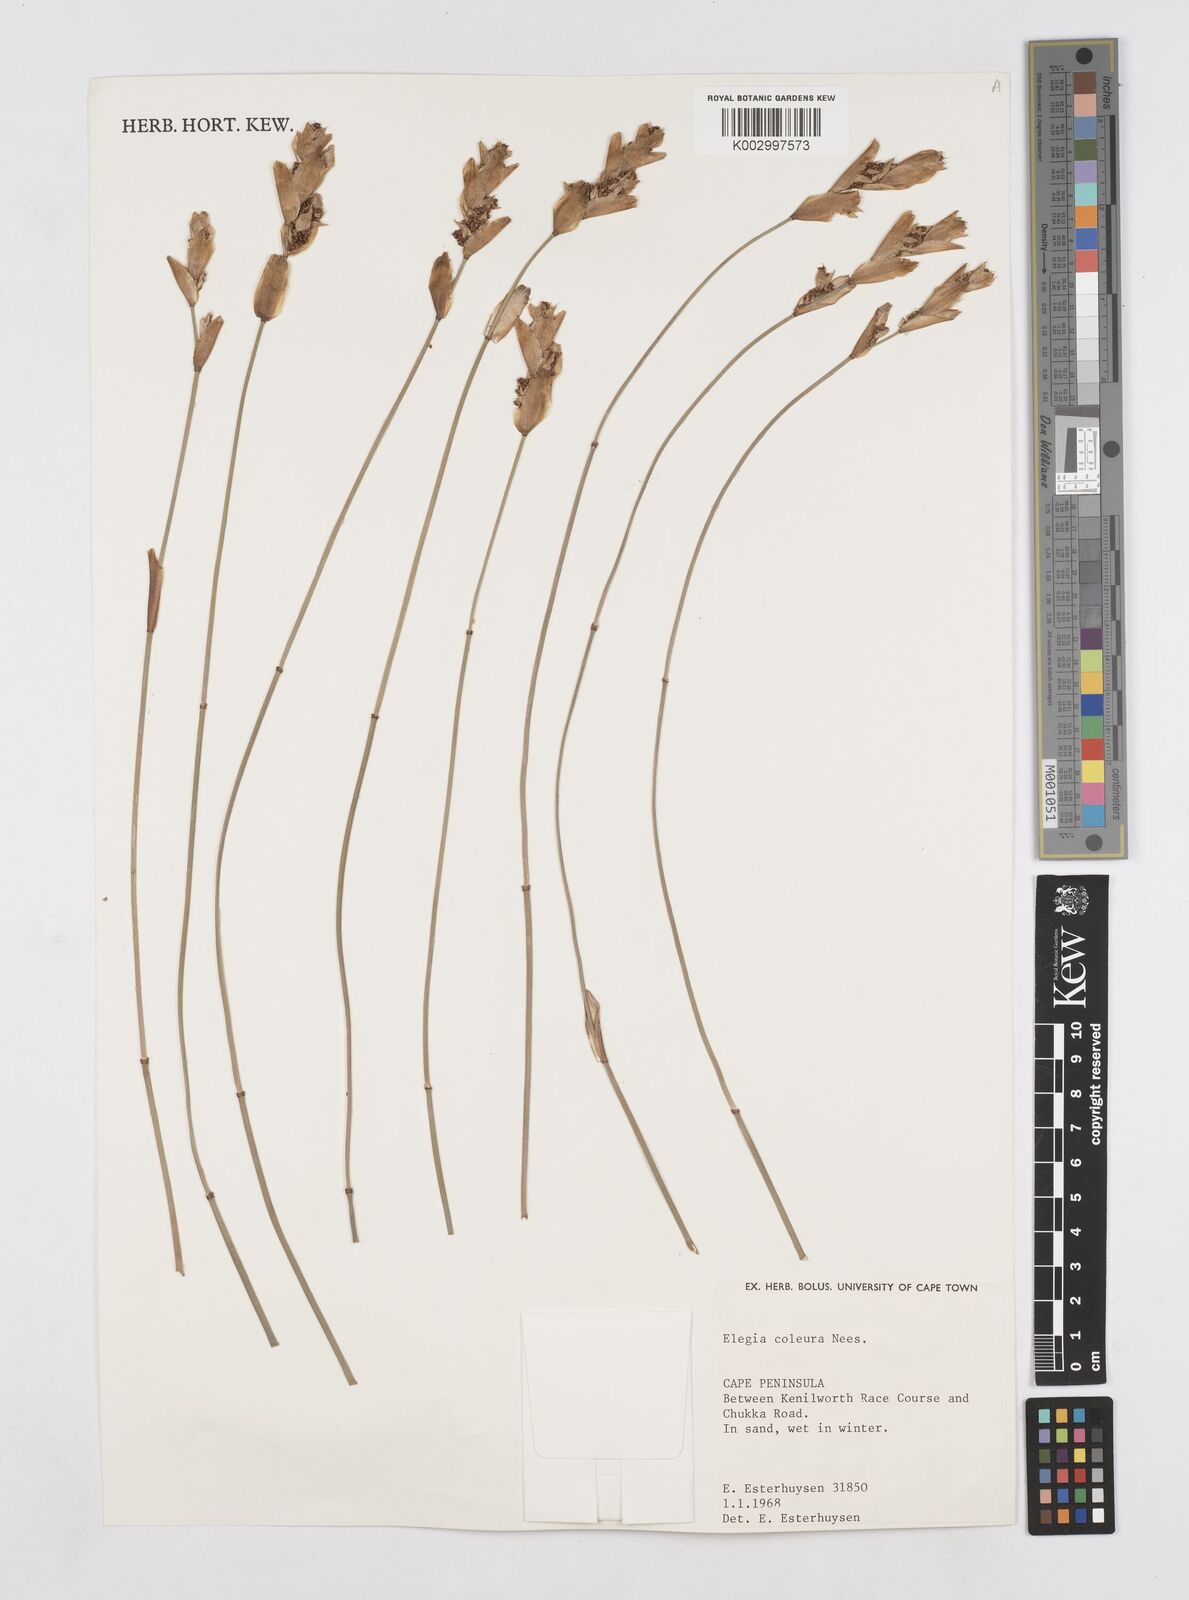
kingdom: Plantae
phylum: Tracheophyta
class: Liliopsida
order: Poales
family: Restionaceae
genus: Elegia
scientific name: Elegia coleura
